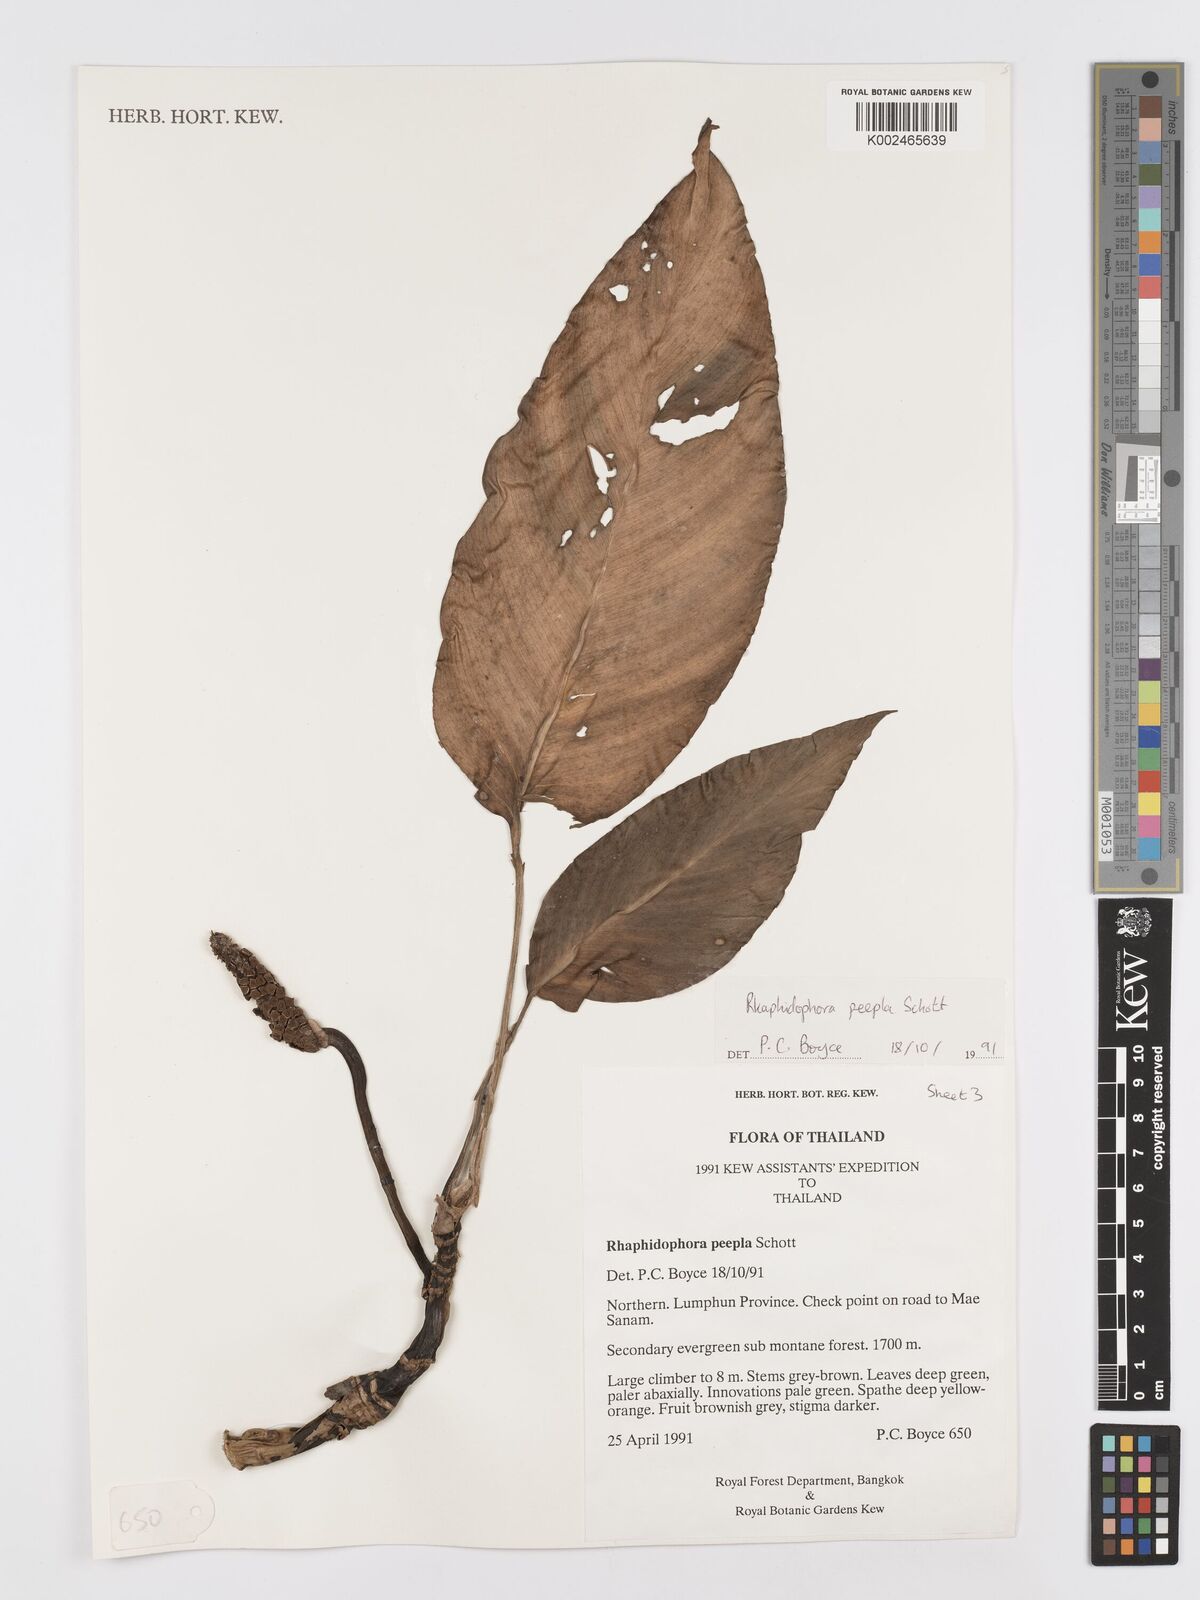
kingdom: Plantae
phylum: Tracheophyta
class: Liliopsida
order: Alismatales
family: Araceae
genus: Rhaphidophora
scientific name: Rhaphidophora peepla
